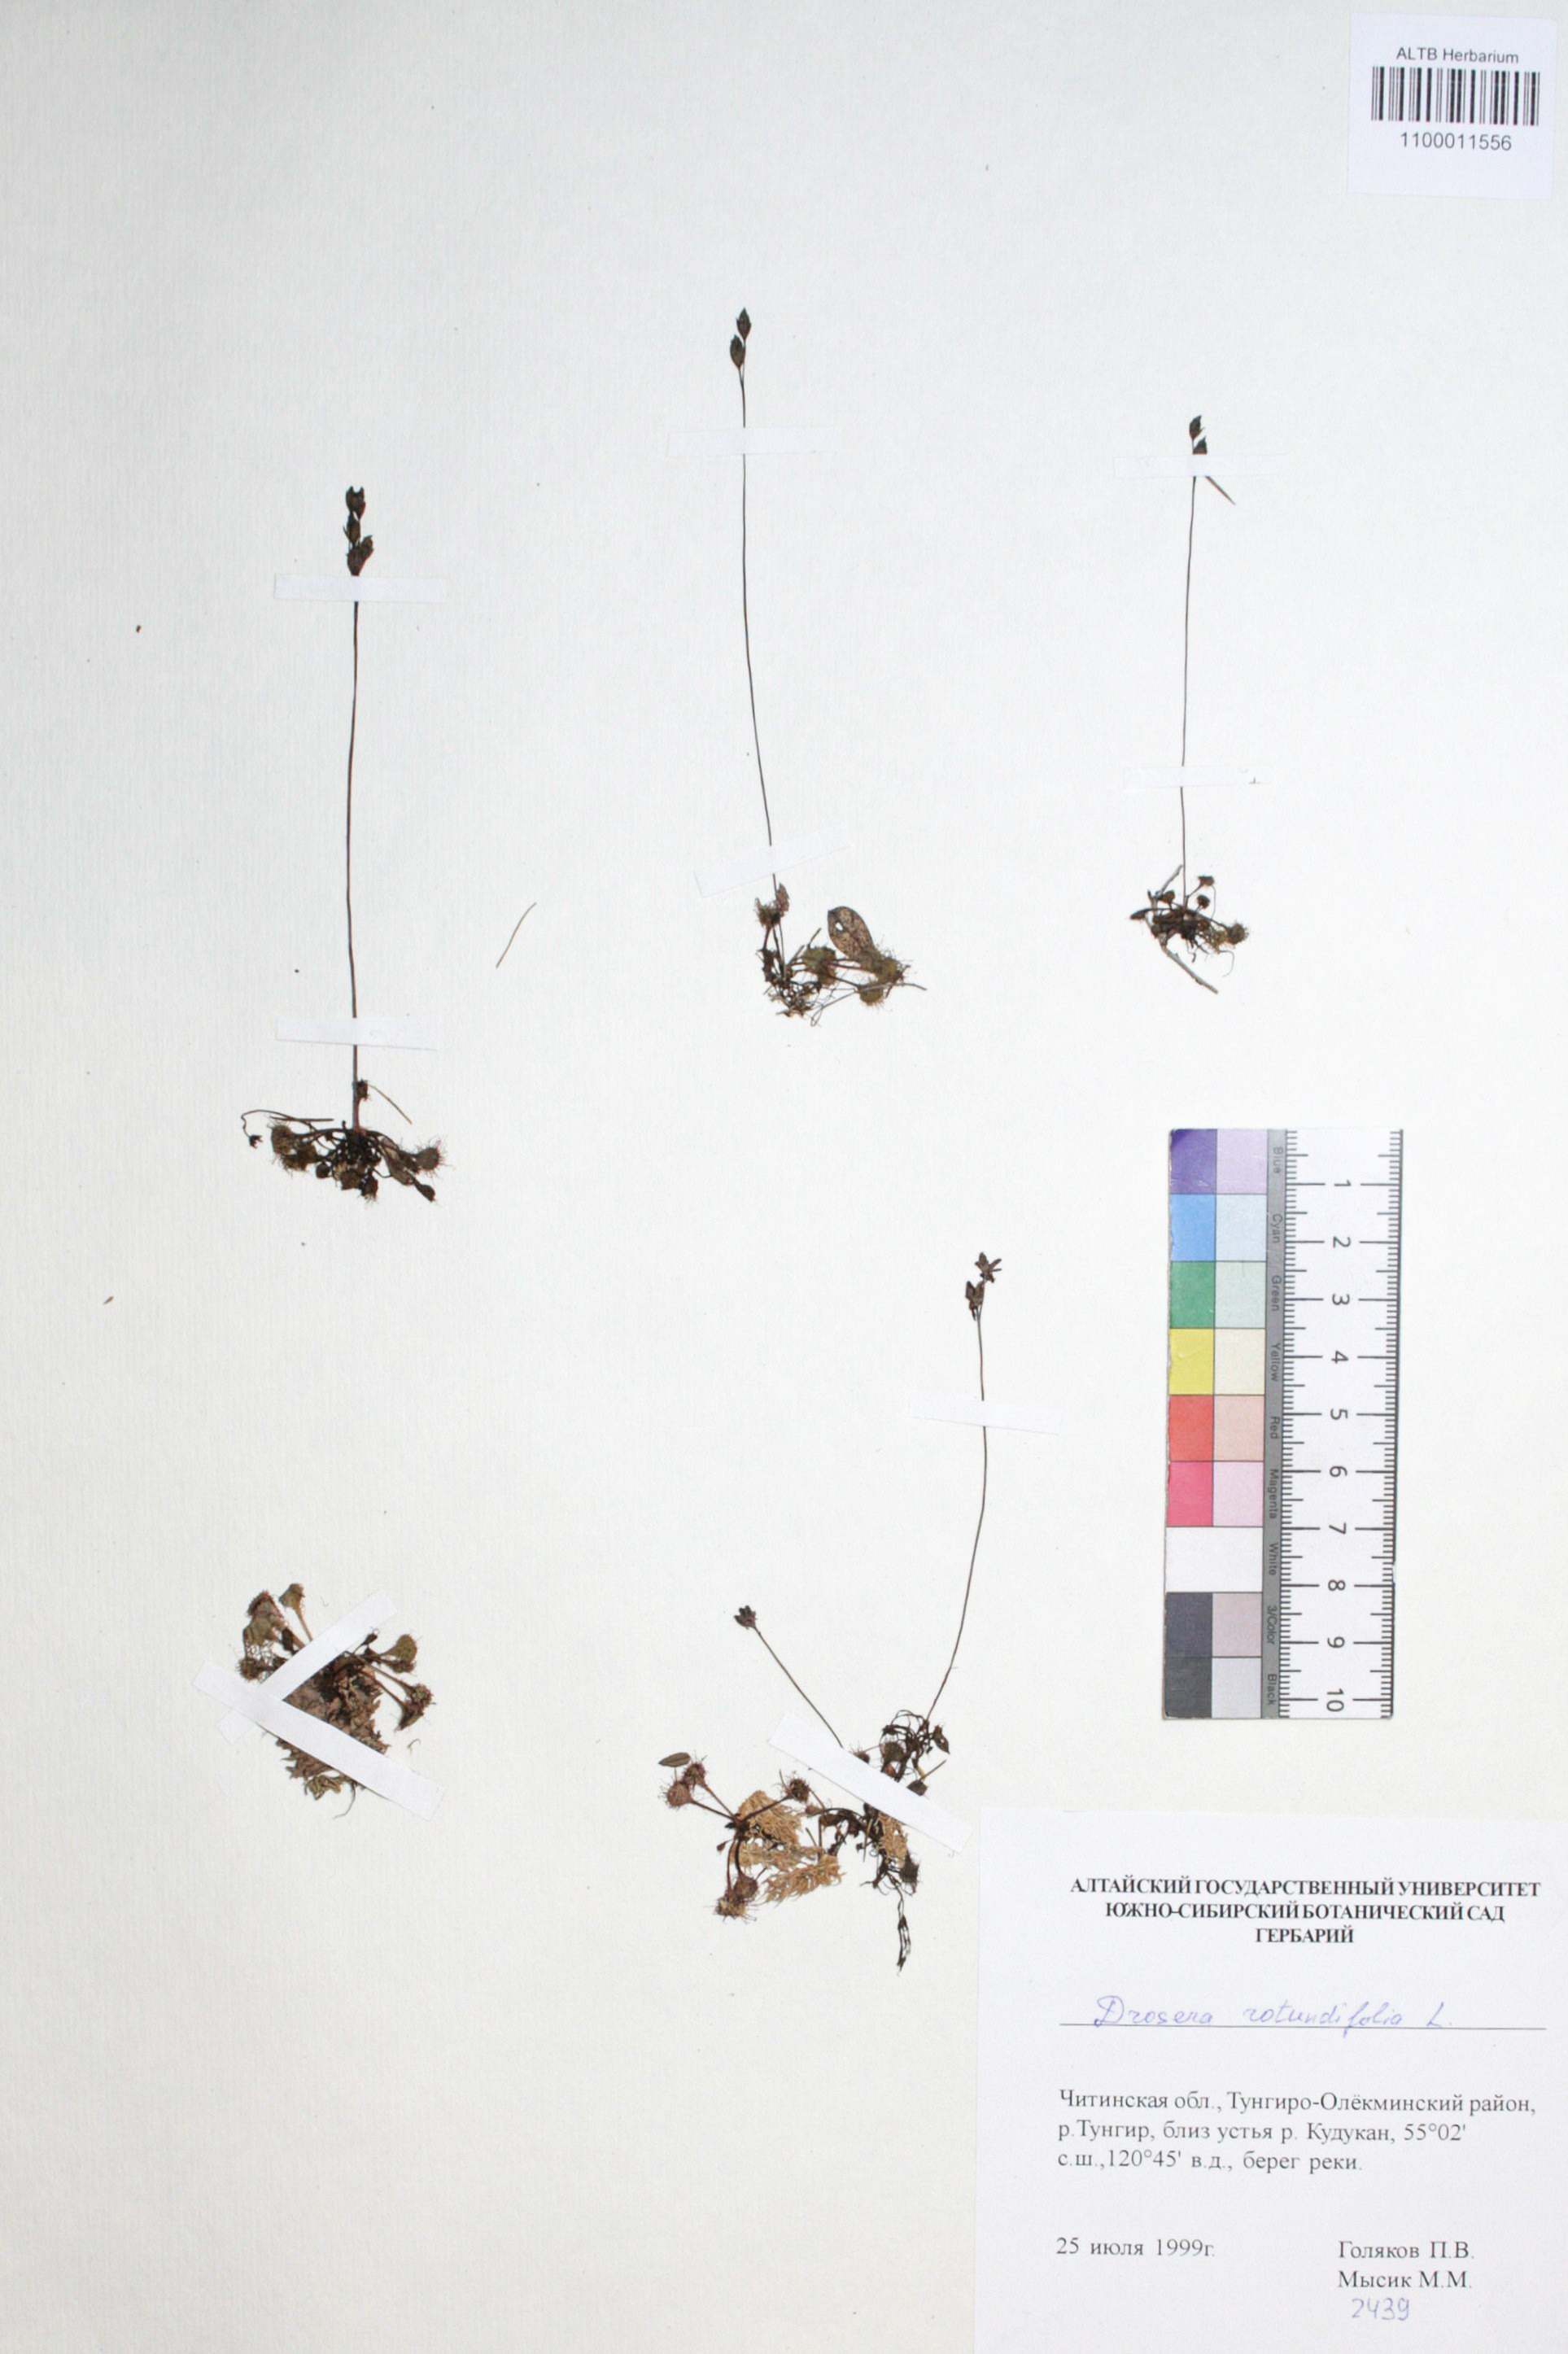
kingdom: Plantae
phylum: Tracheophyta
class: Magnoliopsida
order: Caryophyllales
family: Droseraceae
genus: Drosera
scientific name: Drosera rotundifolia
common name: Round-leaved sundew
